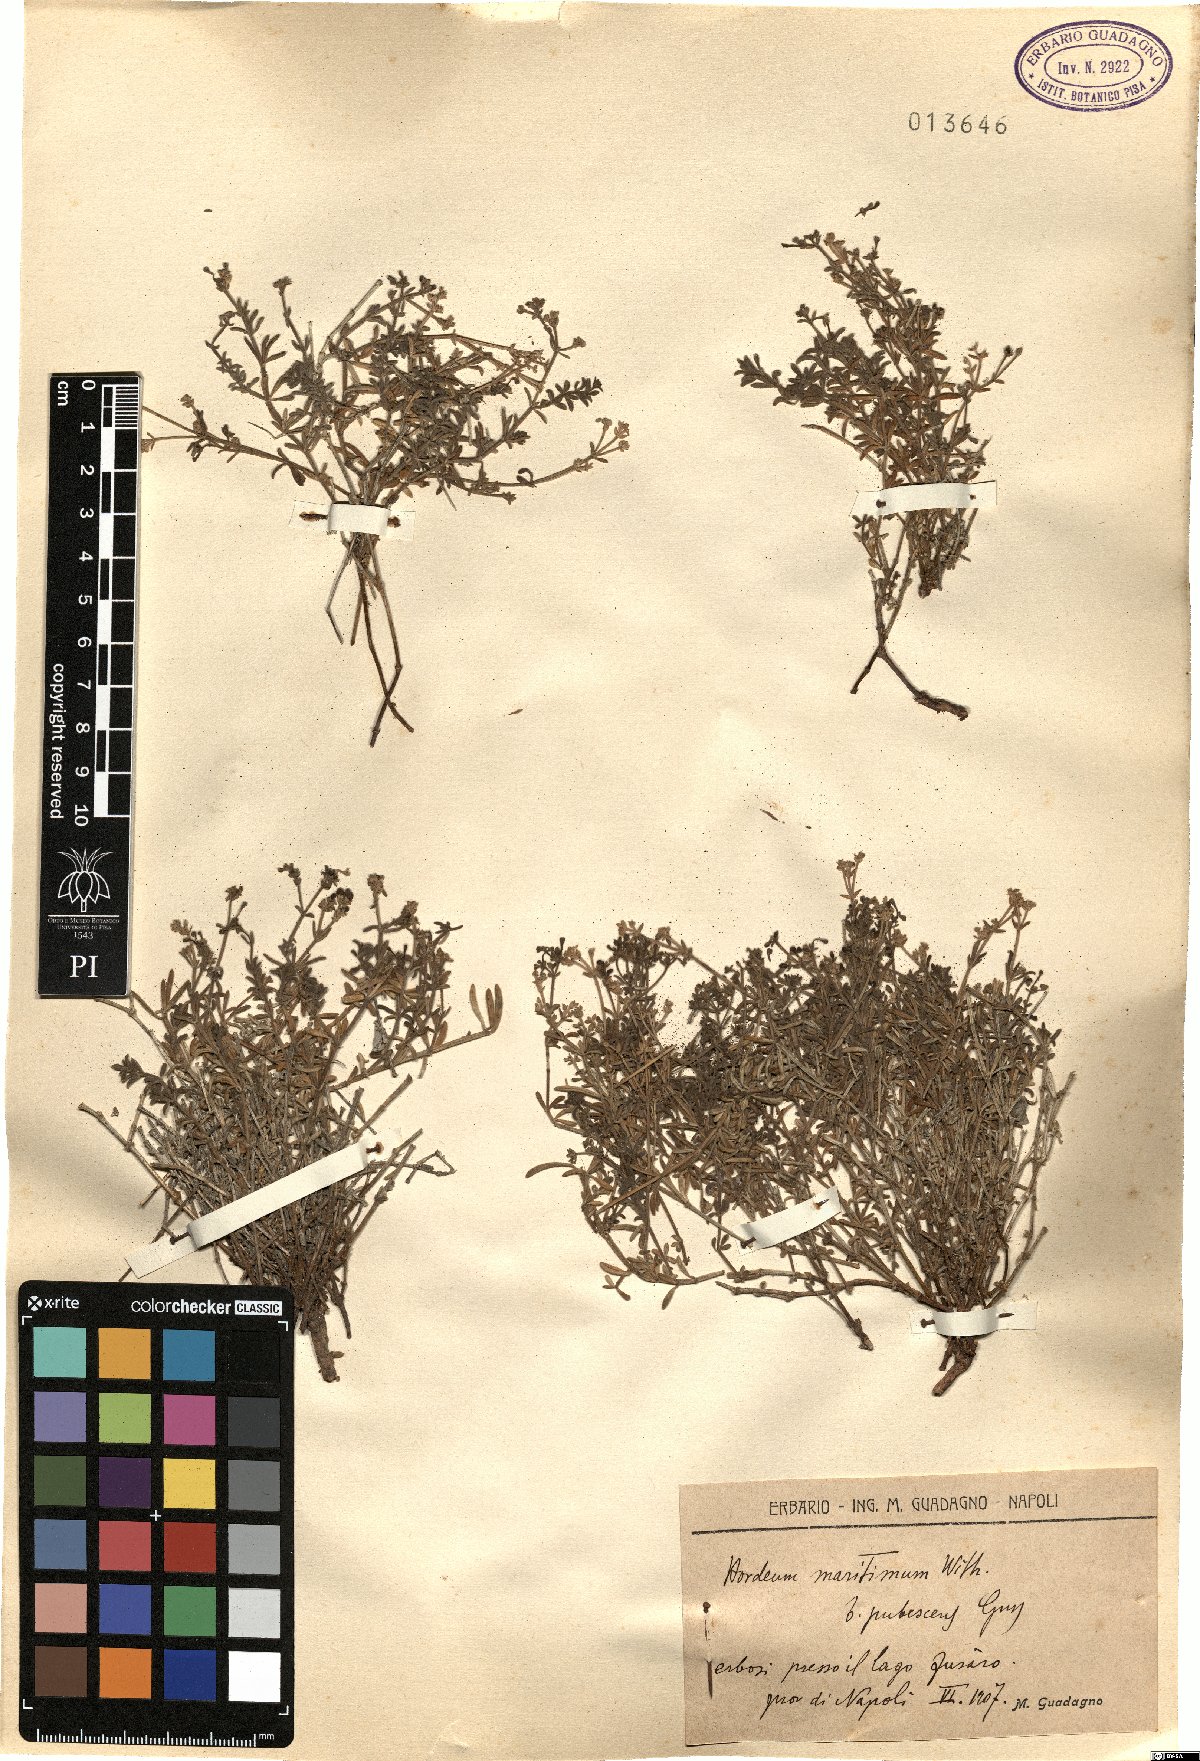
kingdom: Plantae
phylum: Tracheophyta
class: Magnoliopsida
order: Gentianales
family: Rubiaceae
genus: Asperula
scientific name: Asperula
